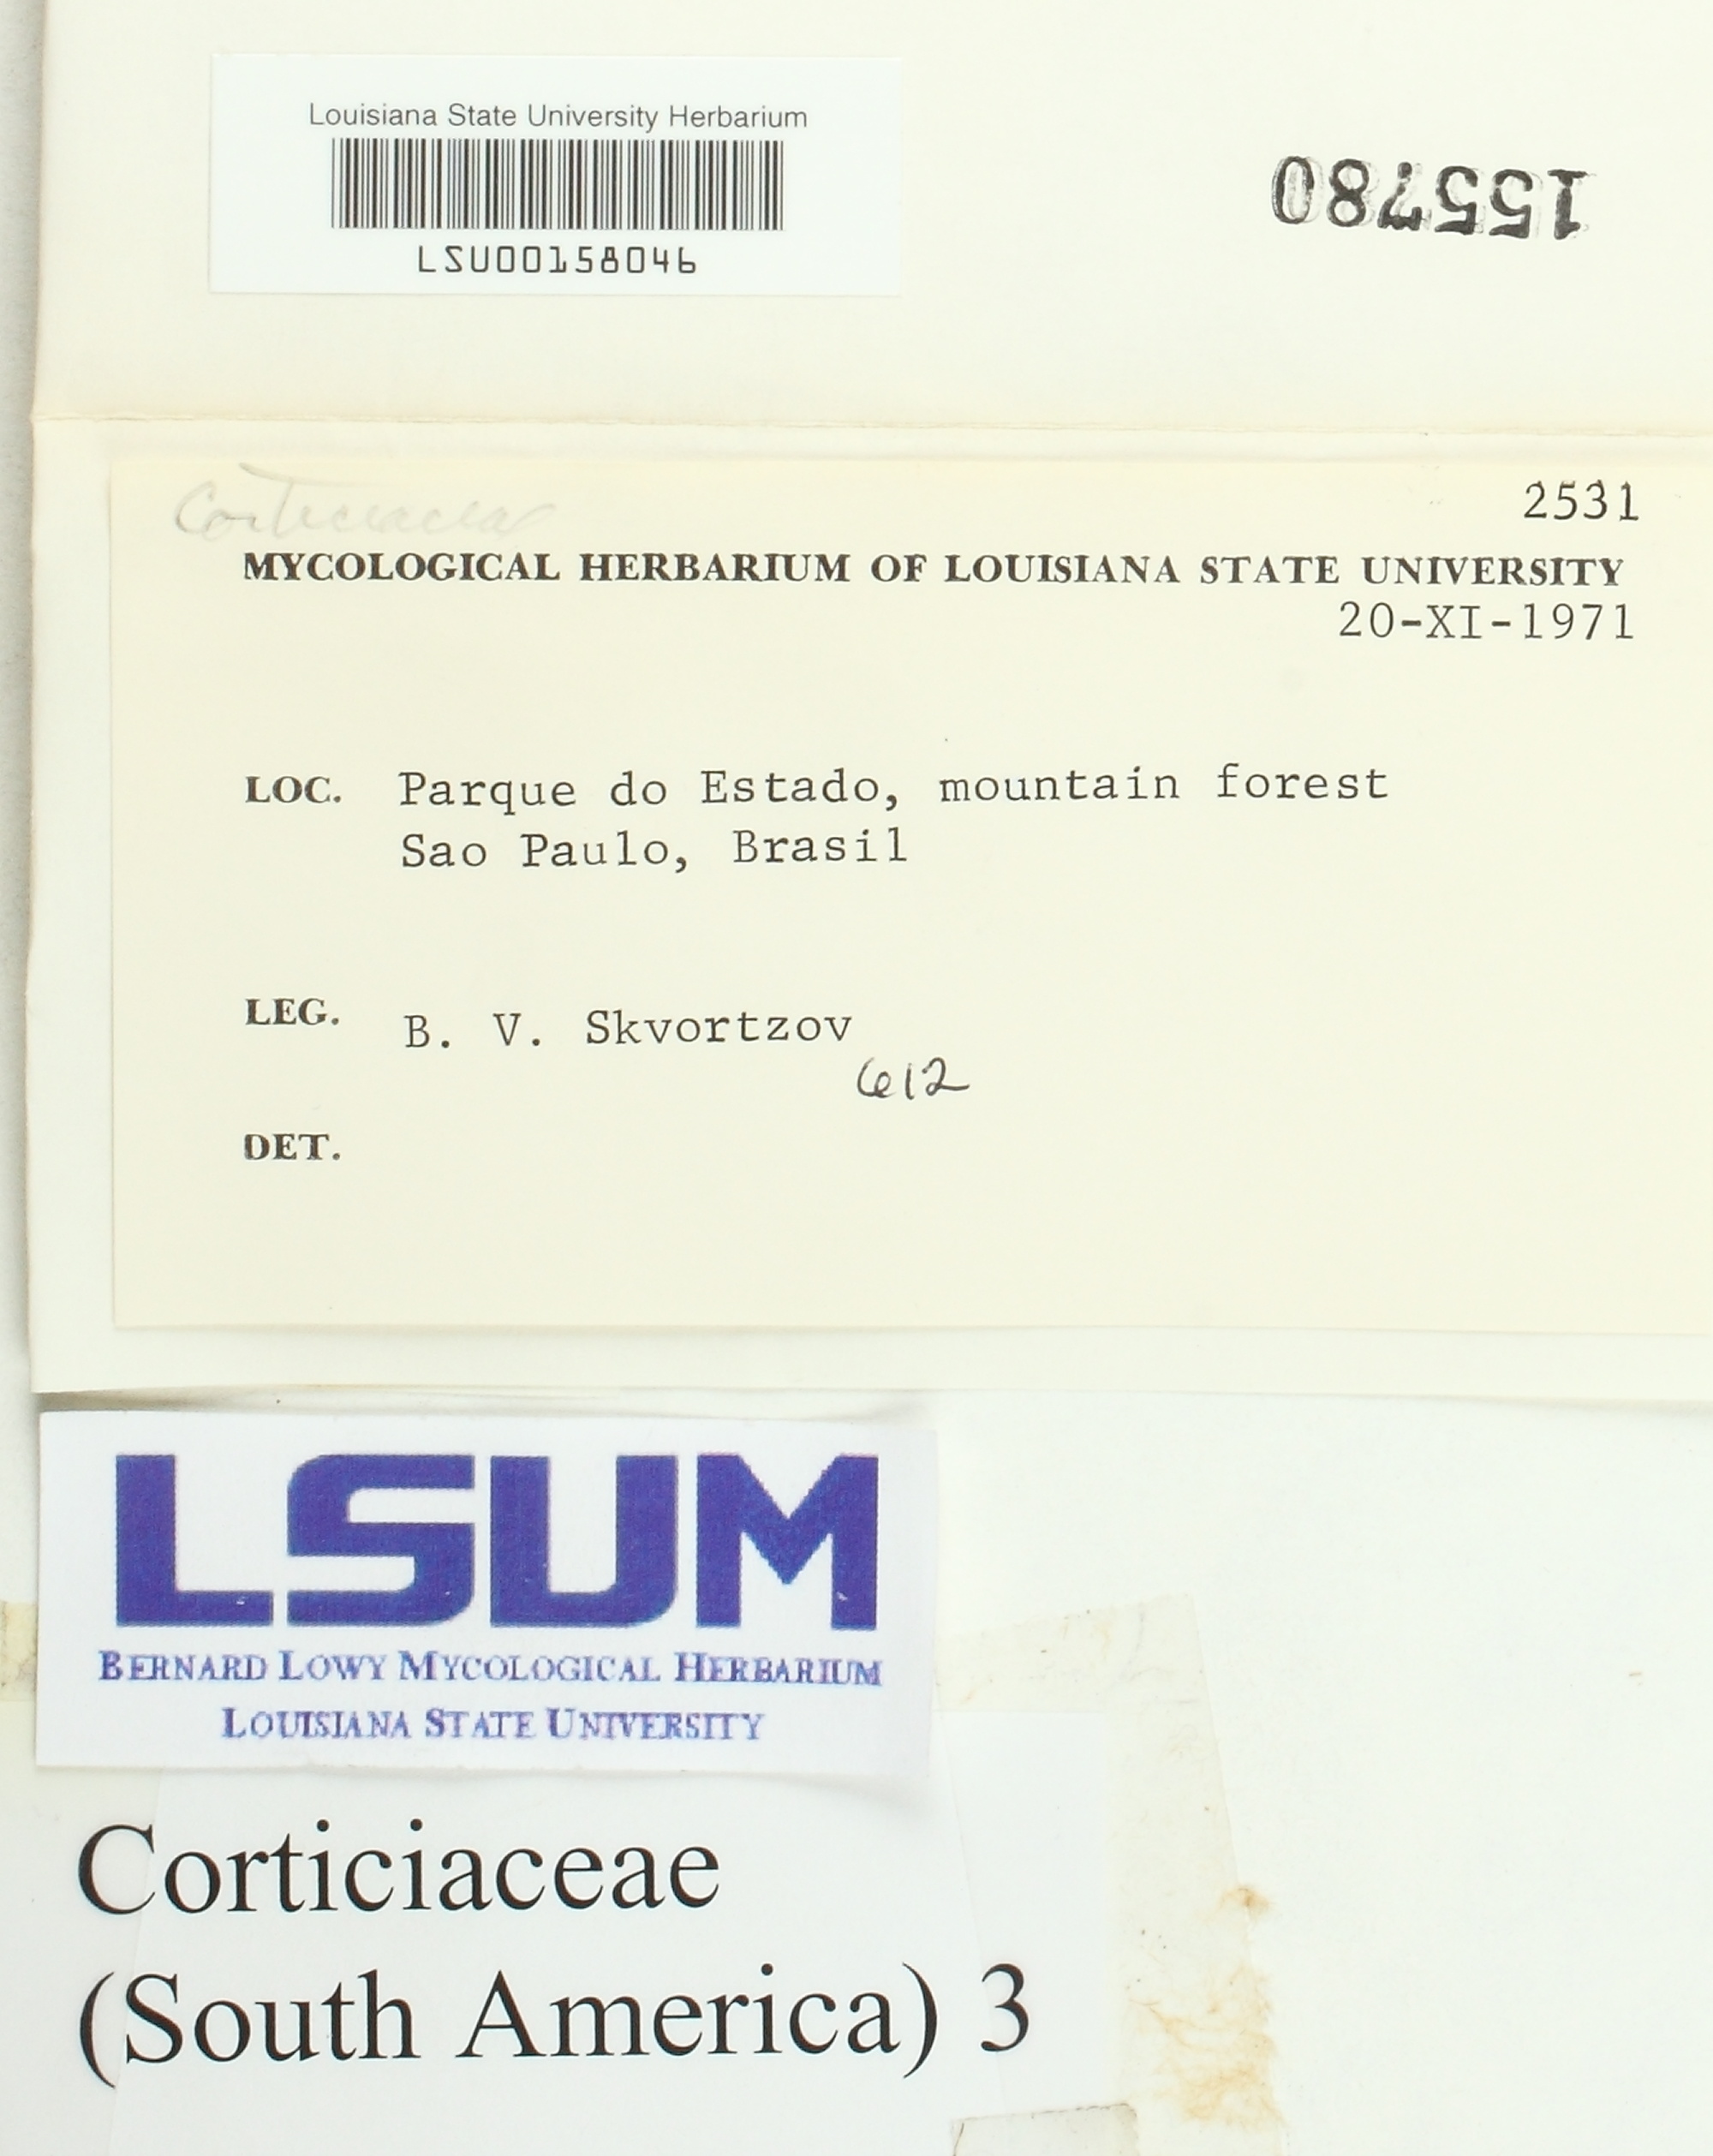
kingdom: Fungi
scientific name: Fungi
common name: Fungi
